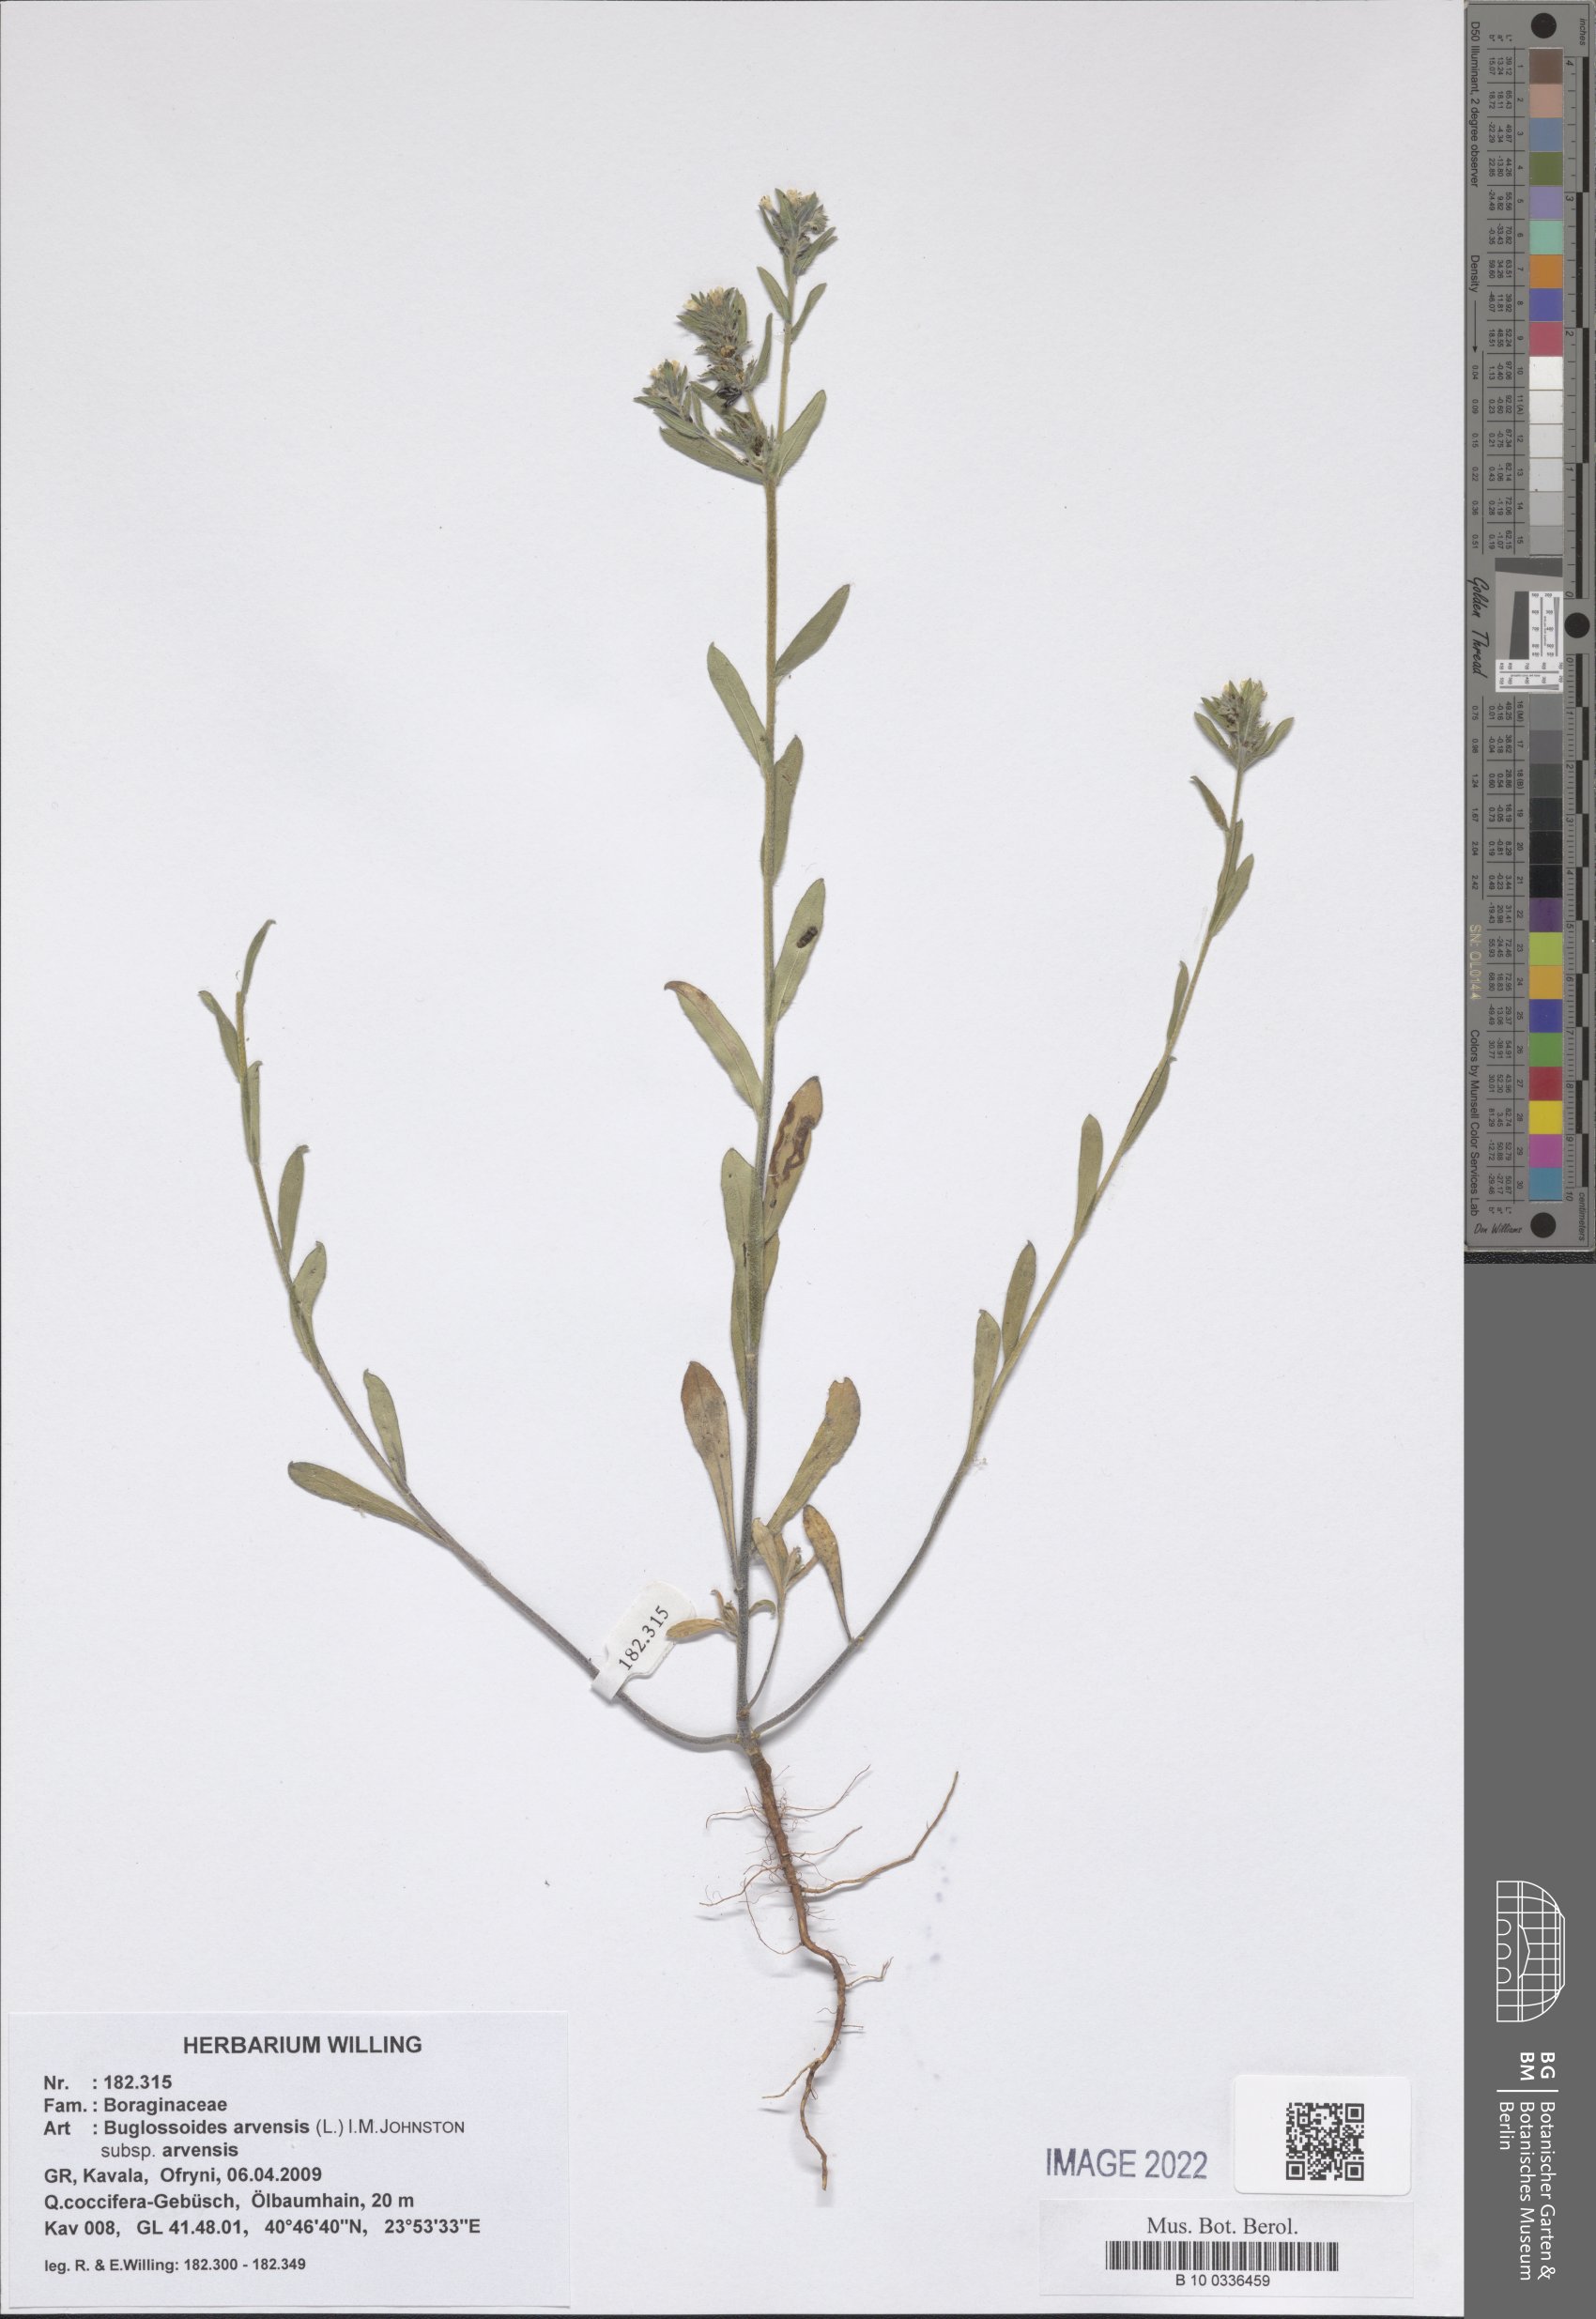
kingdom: Plantae
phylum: Tracheophyta
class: Magnoliopsida
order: Boraginales
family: Boraginaceae
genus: Buglossoides
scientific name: Buglossoides arvensis
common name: Corn gromwell
